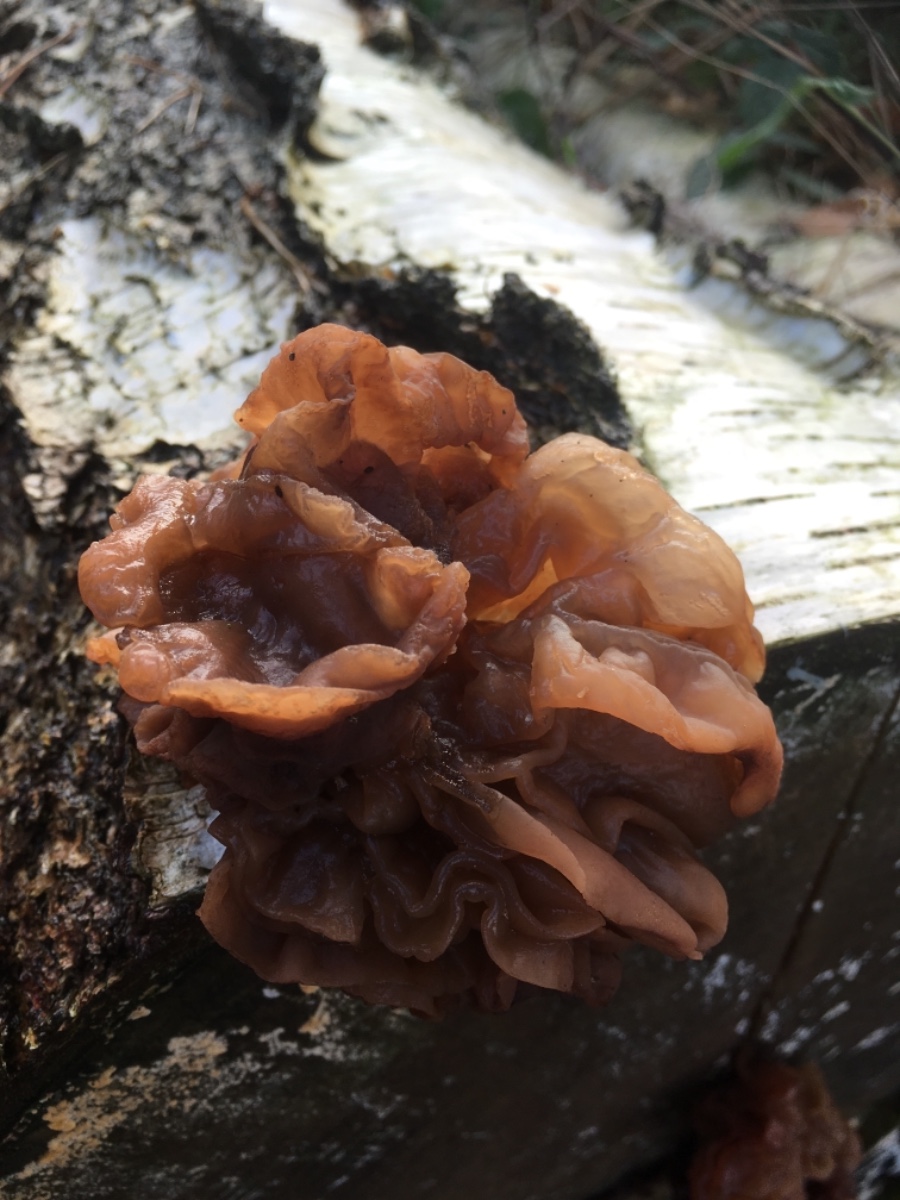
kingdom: Fungi
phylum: Basidiomycota
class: Tremellomycetes
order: Tremellales
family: Tremellaceae
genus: Phaeotremella
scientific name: Phaeotremella frondosa
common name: kæmpe-bævresvamp
